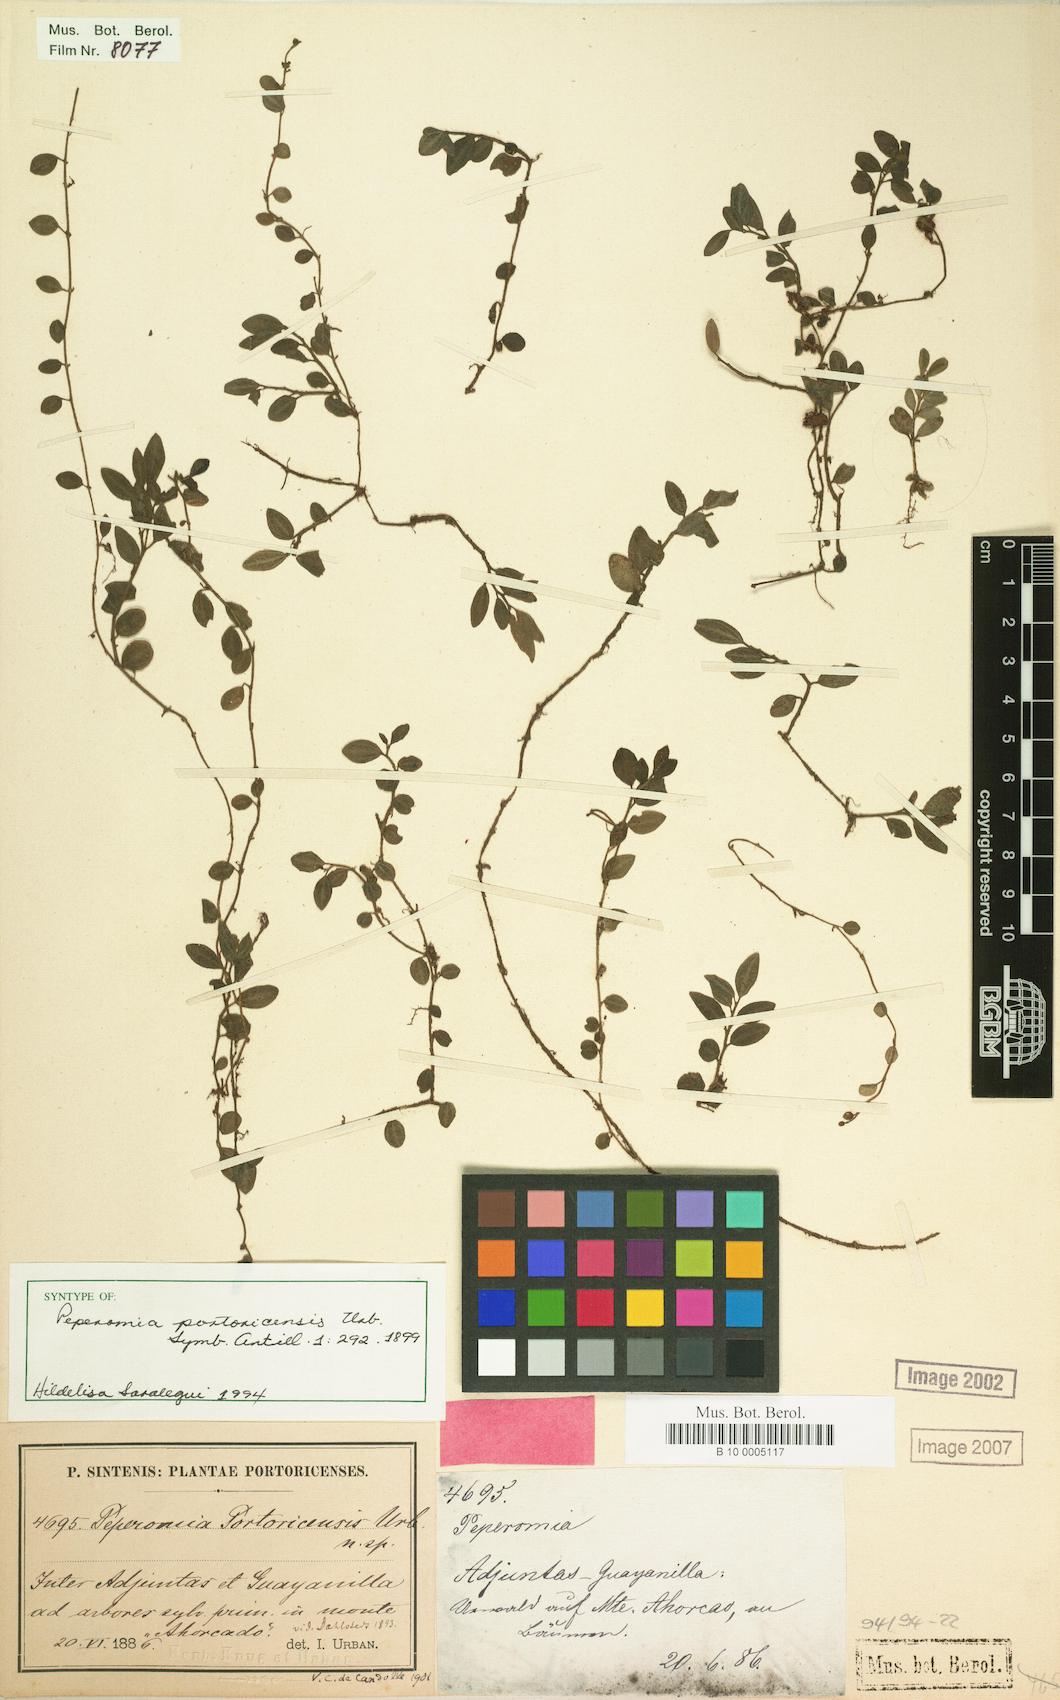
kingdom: Plantae
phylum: Tracheophyta
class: Magnoliopsida
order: Piperales
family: Piperaceae
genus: Peperomia
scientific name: Peperomia portoricensis
